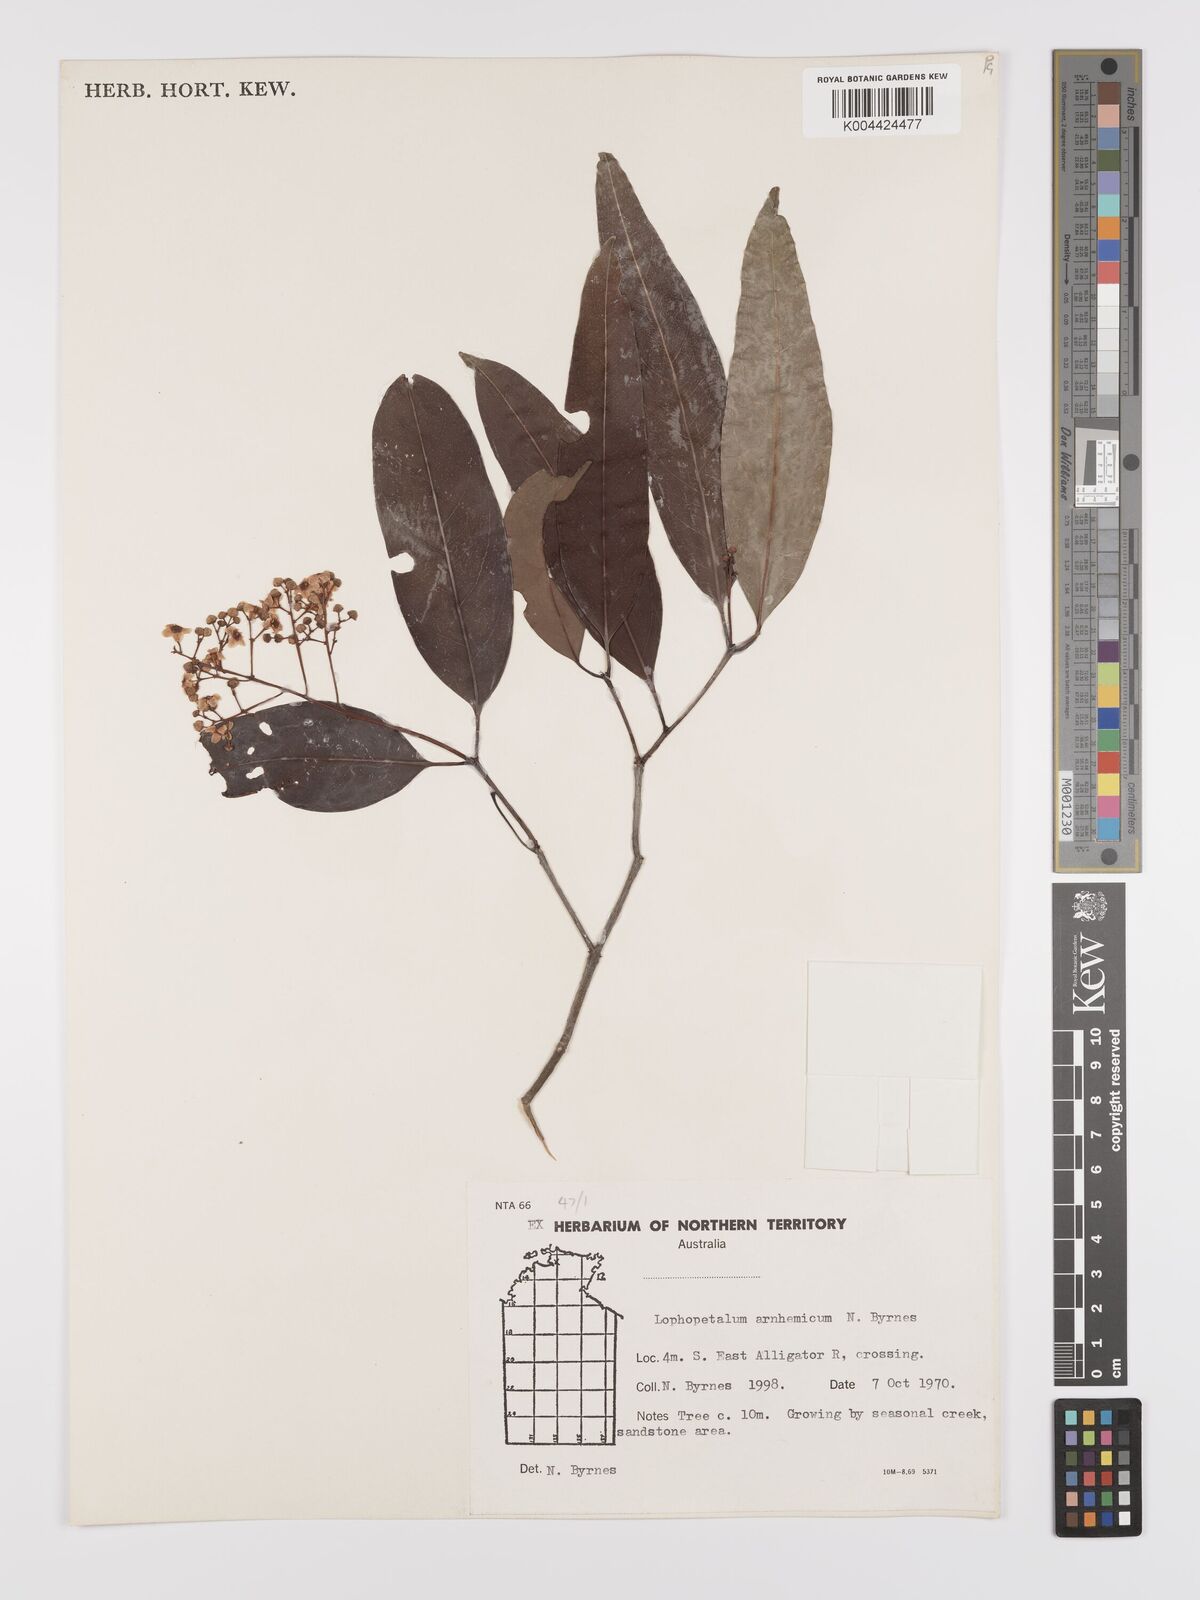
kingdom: Plantae
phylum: Tracheophyta
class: Magnoliopsida
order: Celastrales
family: Celastraceae
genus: Lophopetalum
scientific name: Lophopetalum arnhemicum
